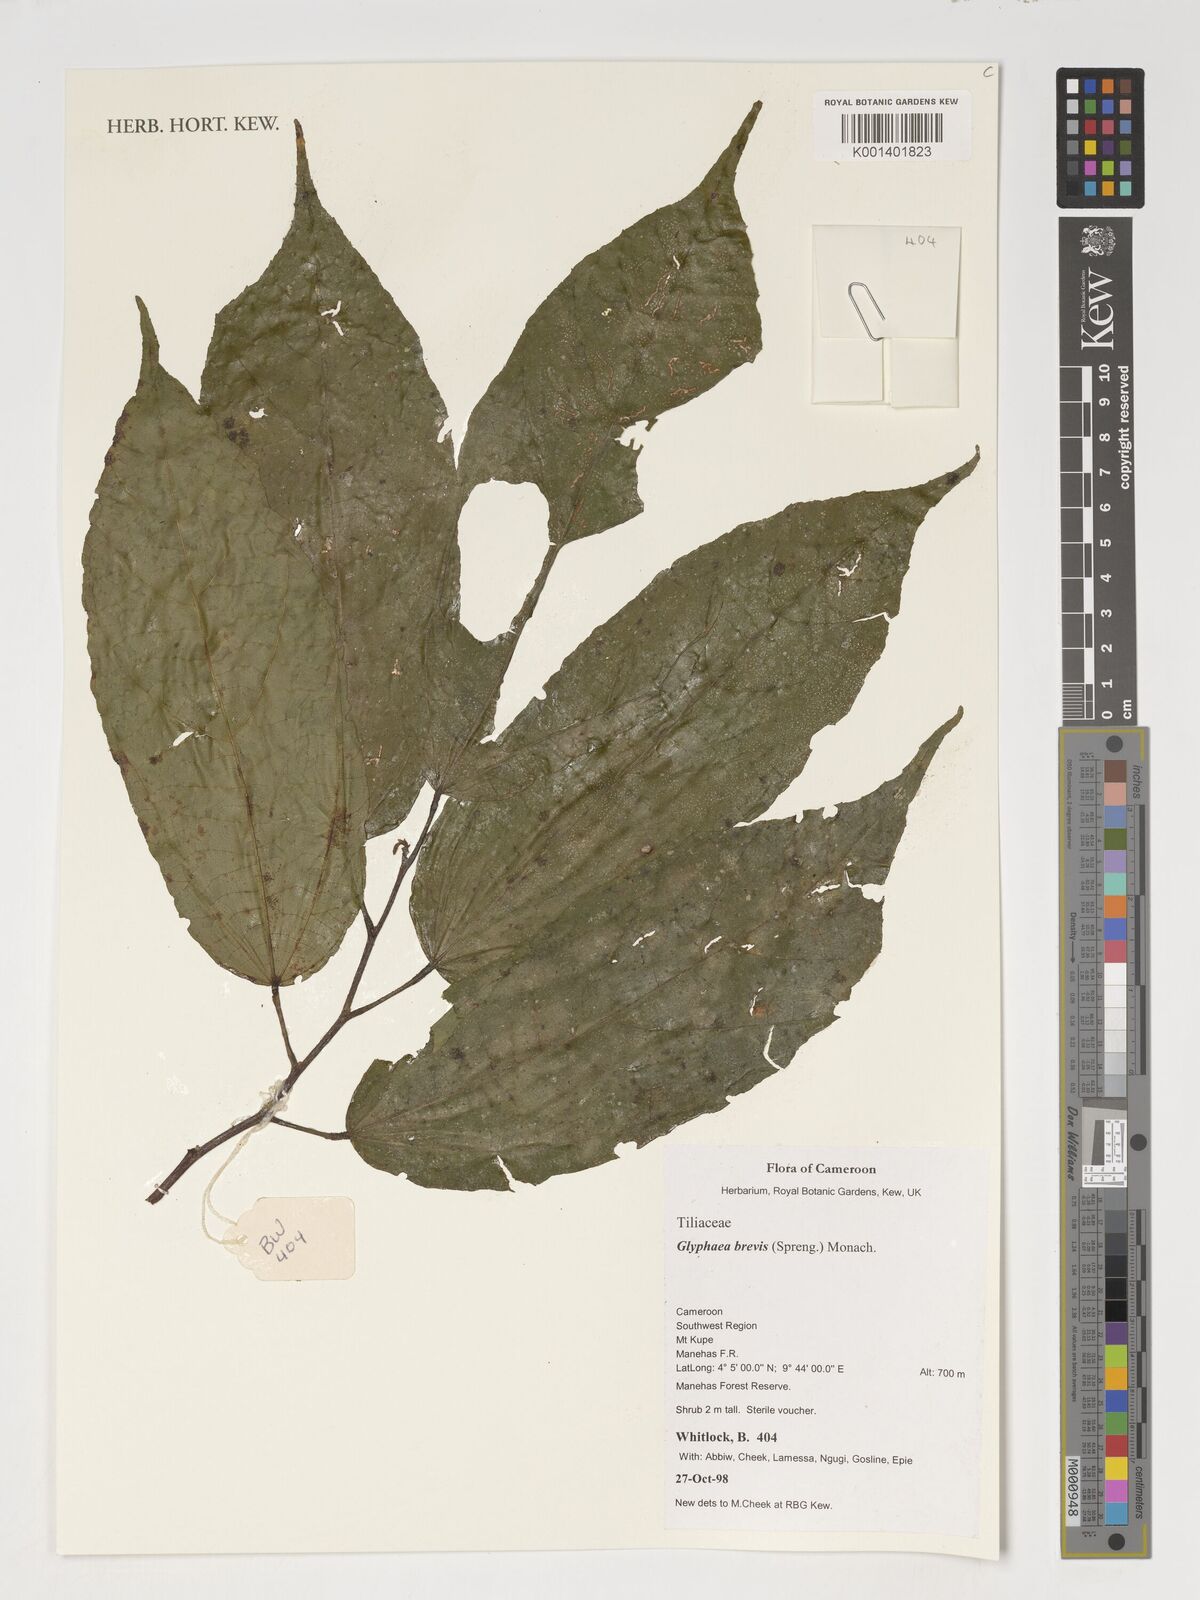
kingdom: Plantae
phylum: Tracheophyta
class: Magnoliopsida
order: Malvales
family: Malvaceae
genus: Glyphaea
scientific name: Glyphaea brevis
